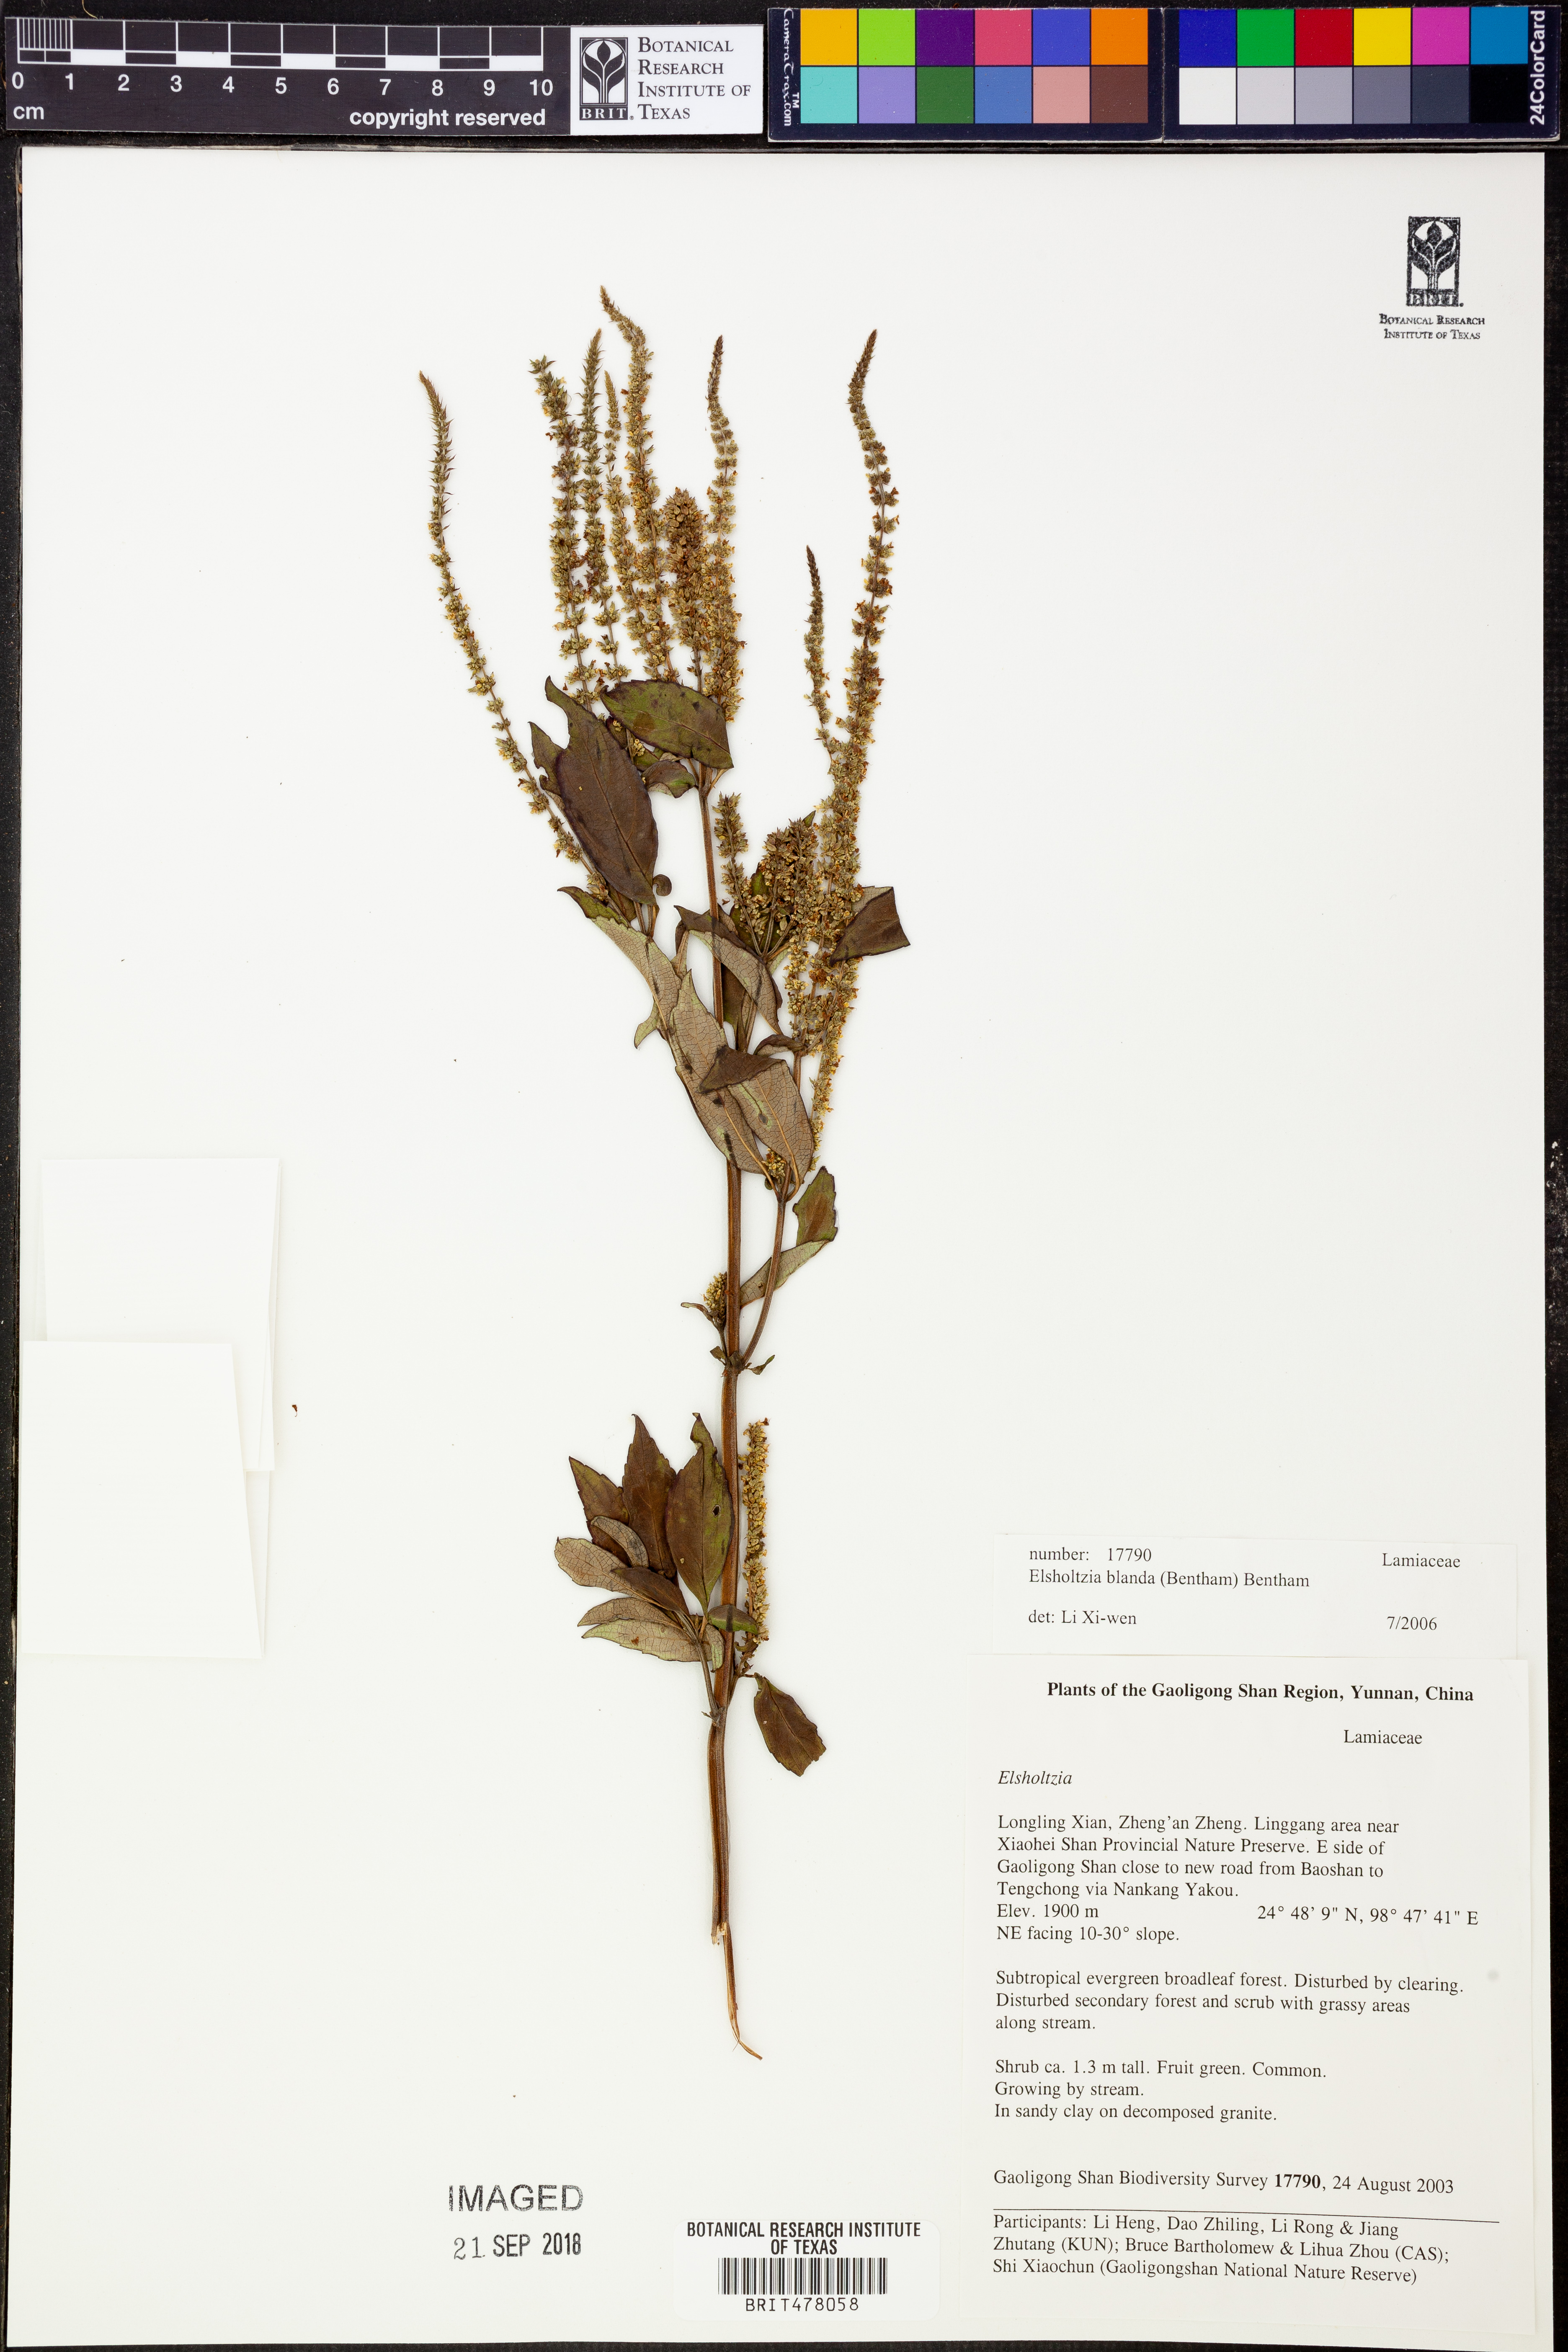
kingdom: Plantae
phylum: Tracheophyta
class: Magnoliopsida
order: Lamiales
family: Lamiaceae
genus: Elsholtzia
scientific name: Elsholtzia blanda
